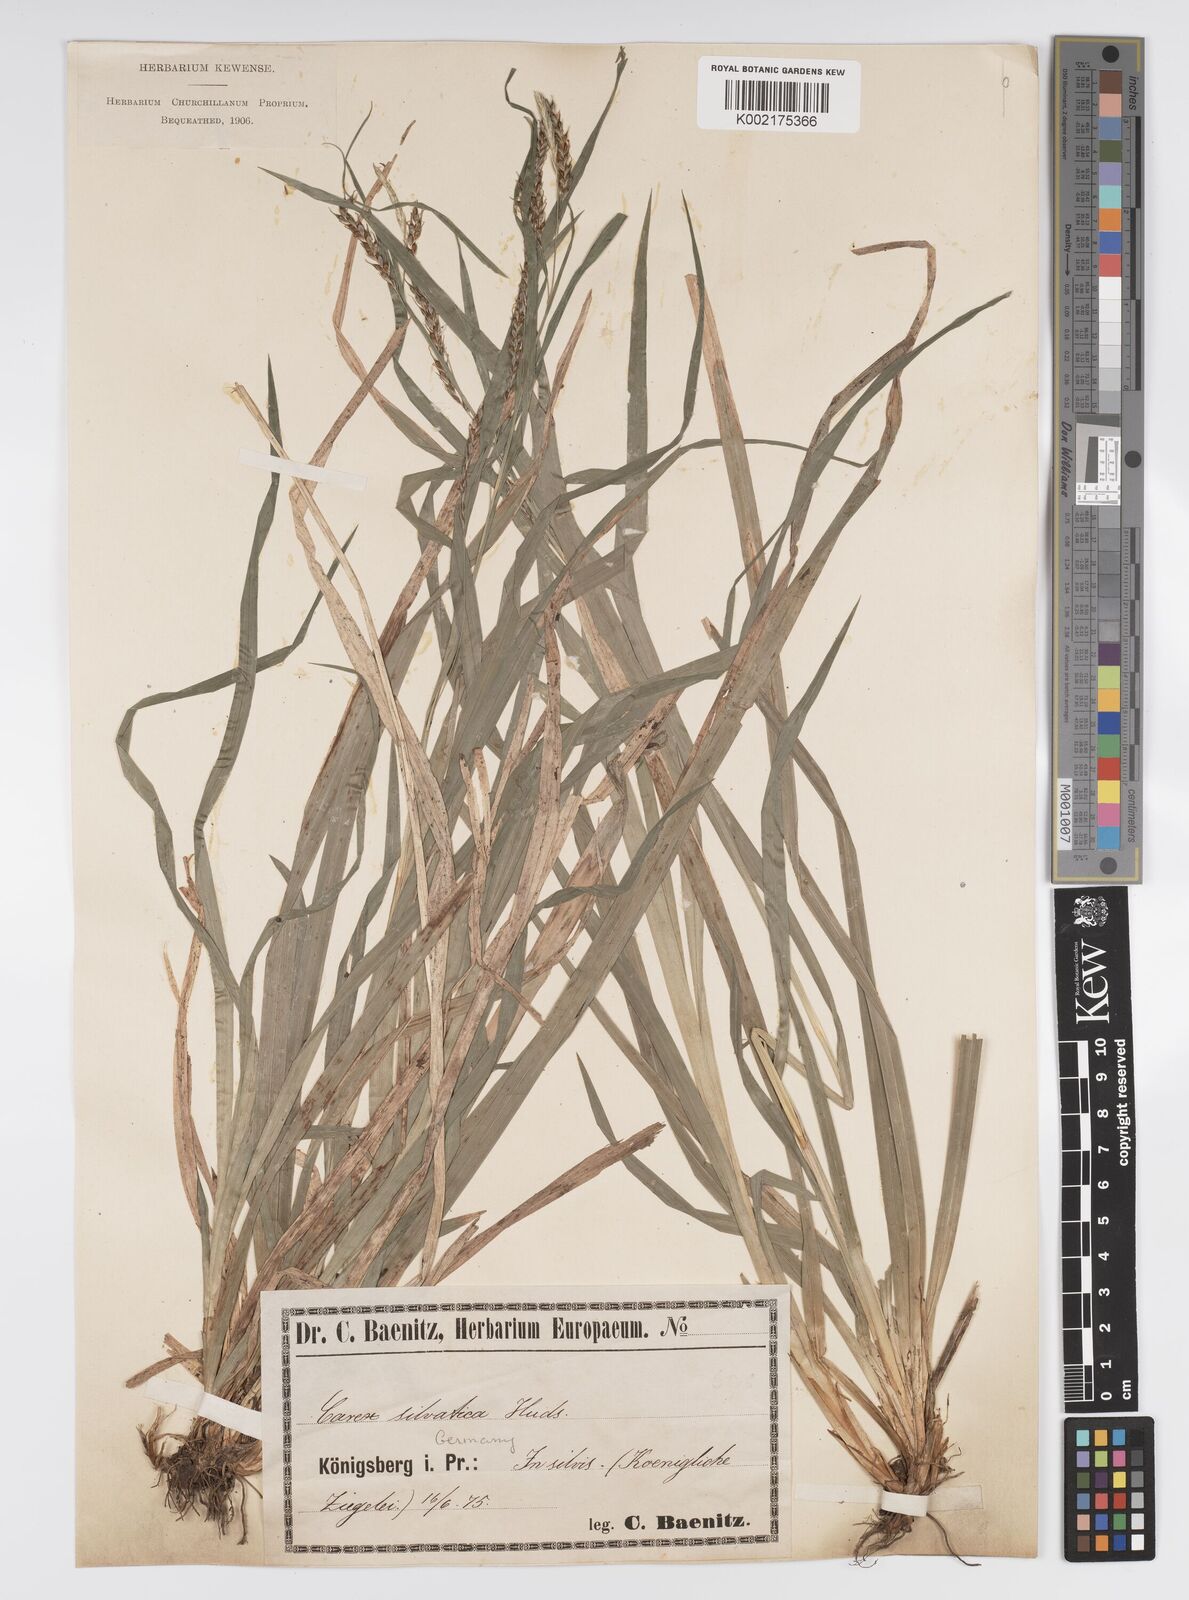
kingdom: Plantae
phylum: Tracheophyta
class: Liliopsida
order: Poales
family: Cyperaceae
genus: Carex
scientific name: Carex sylvatica
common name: Wood-sedge
